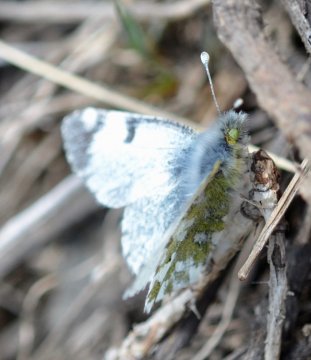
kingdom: Animalia
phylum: Arthropoda
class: Insecta
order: Lepidoptera
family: Pieridae
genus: Euchloe
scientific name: Euchloe ausonides
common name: Large Marble
